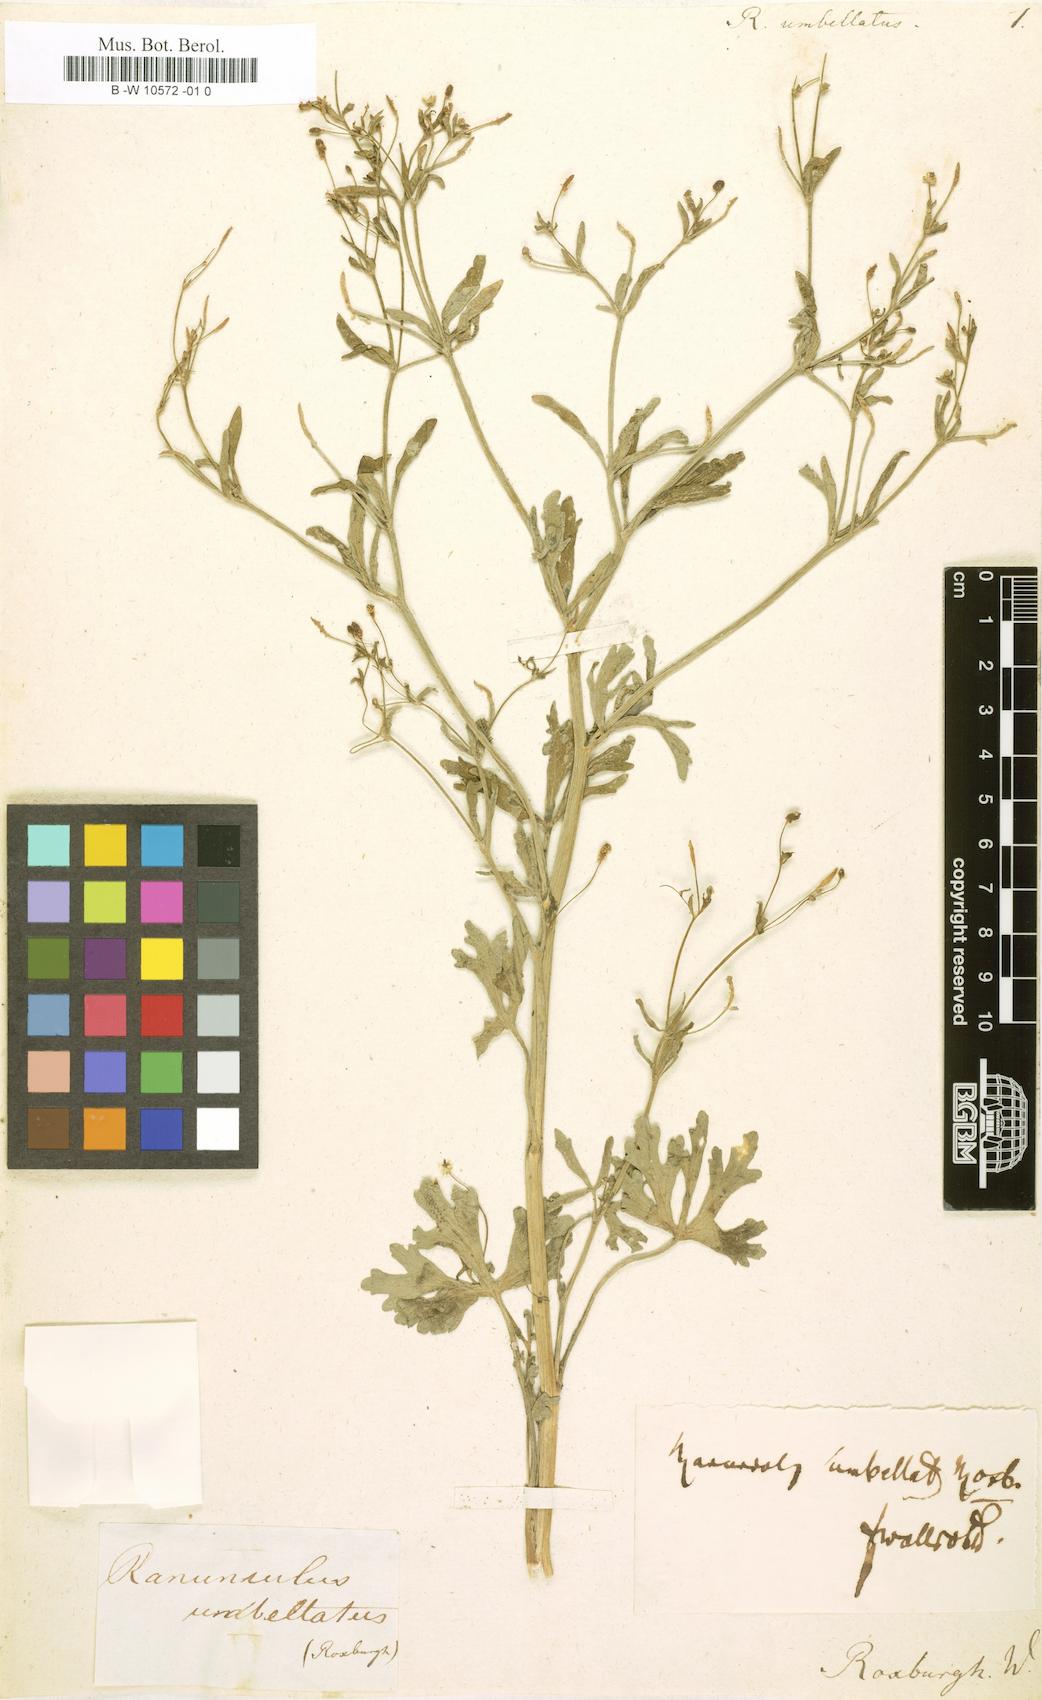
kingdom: Plantae
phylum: Tracheophyta
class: Magnoliopsida
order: Ranunculales
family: Ranunculaceae
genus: Ranunculus
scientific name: Ranunculus sceleratus
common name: Celery-leaved buttercup
